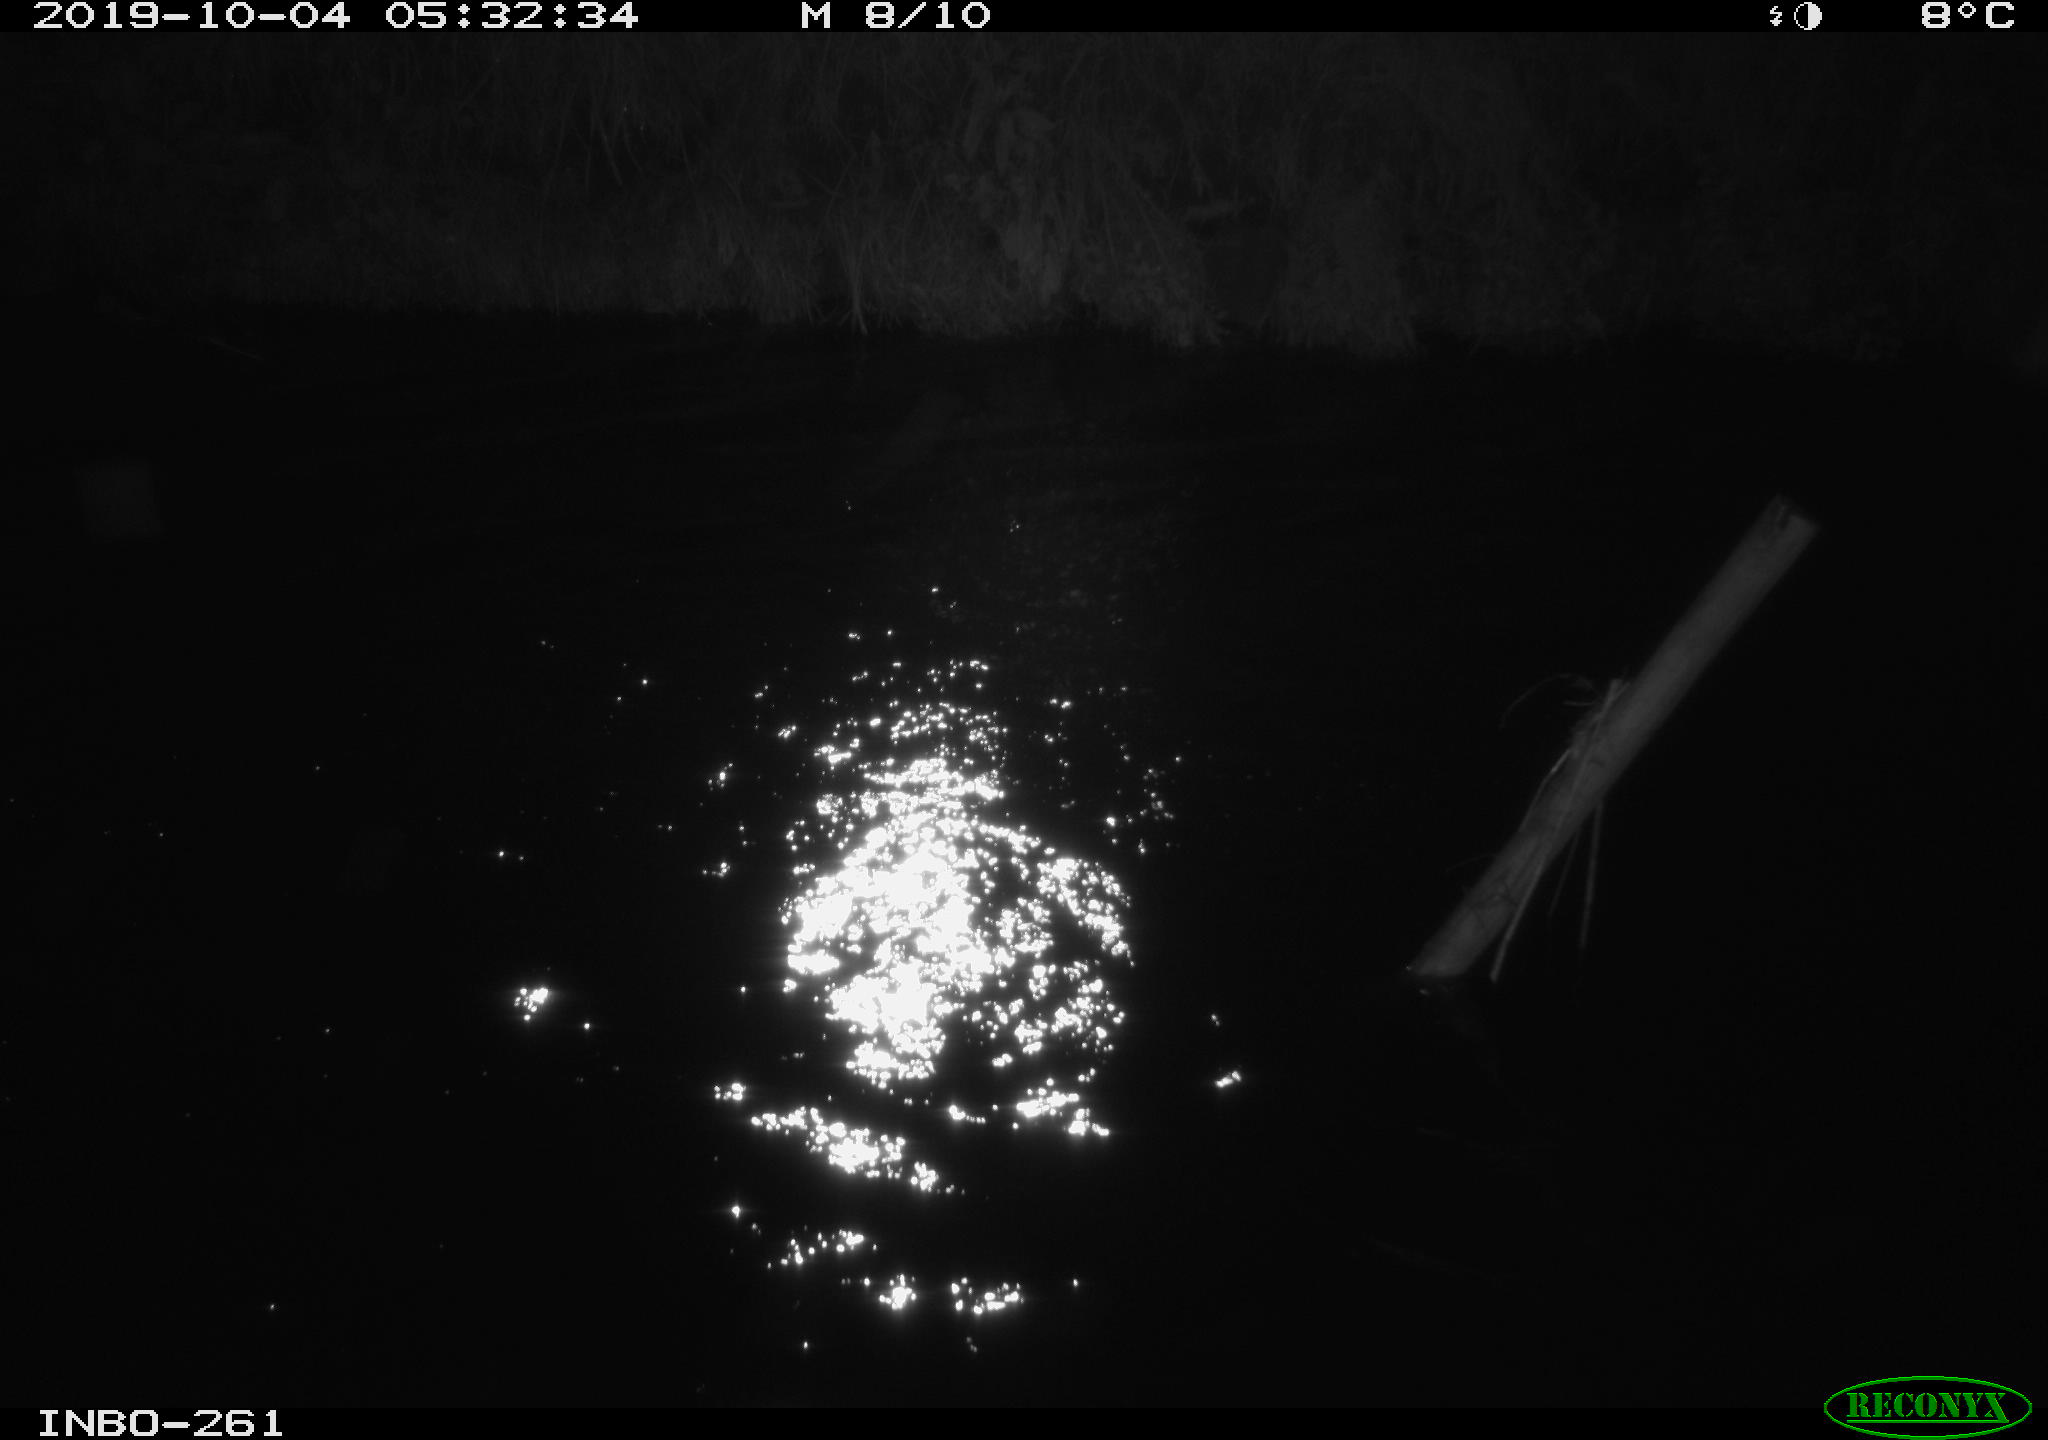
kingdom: Animalia
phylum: Chordata
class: Aves
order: Anseriformes
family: Anatidae
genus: Anas
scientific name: Anas platyrhynchos
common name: Mallard
